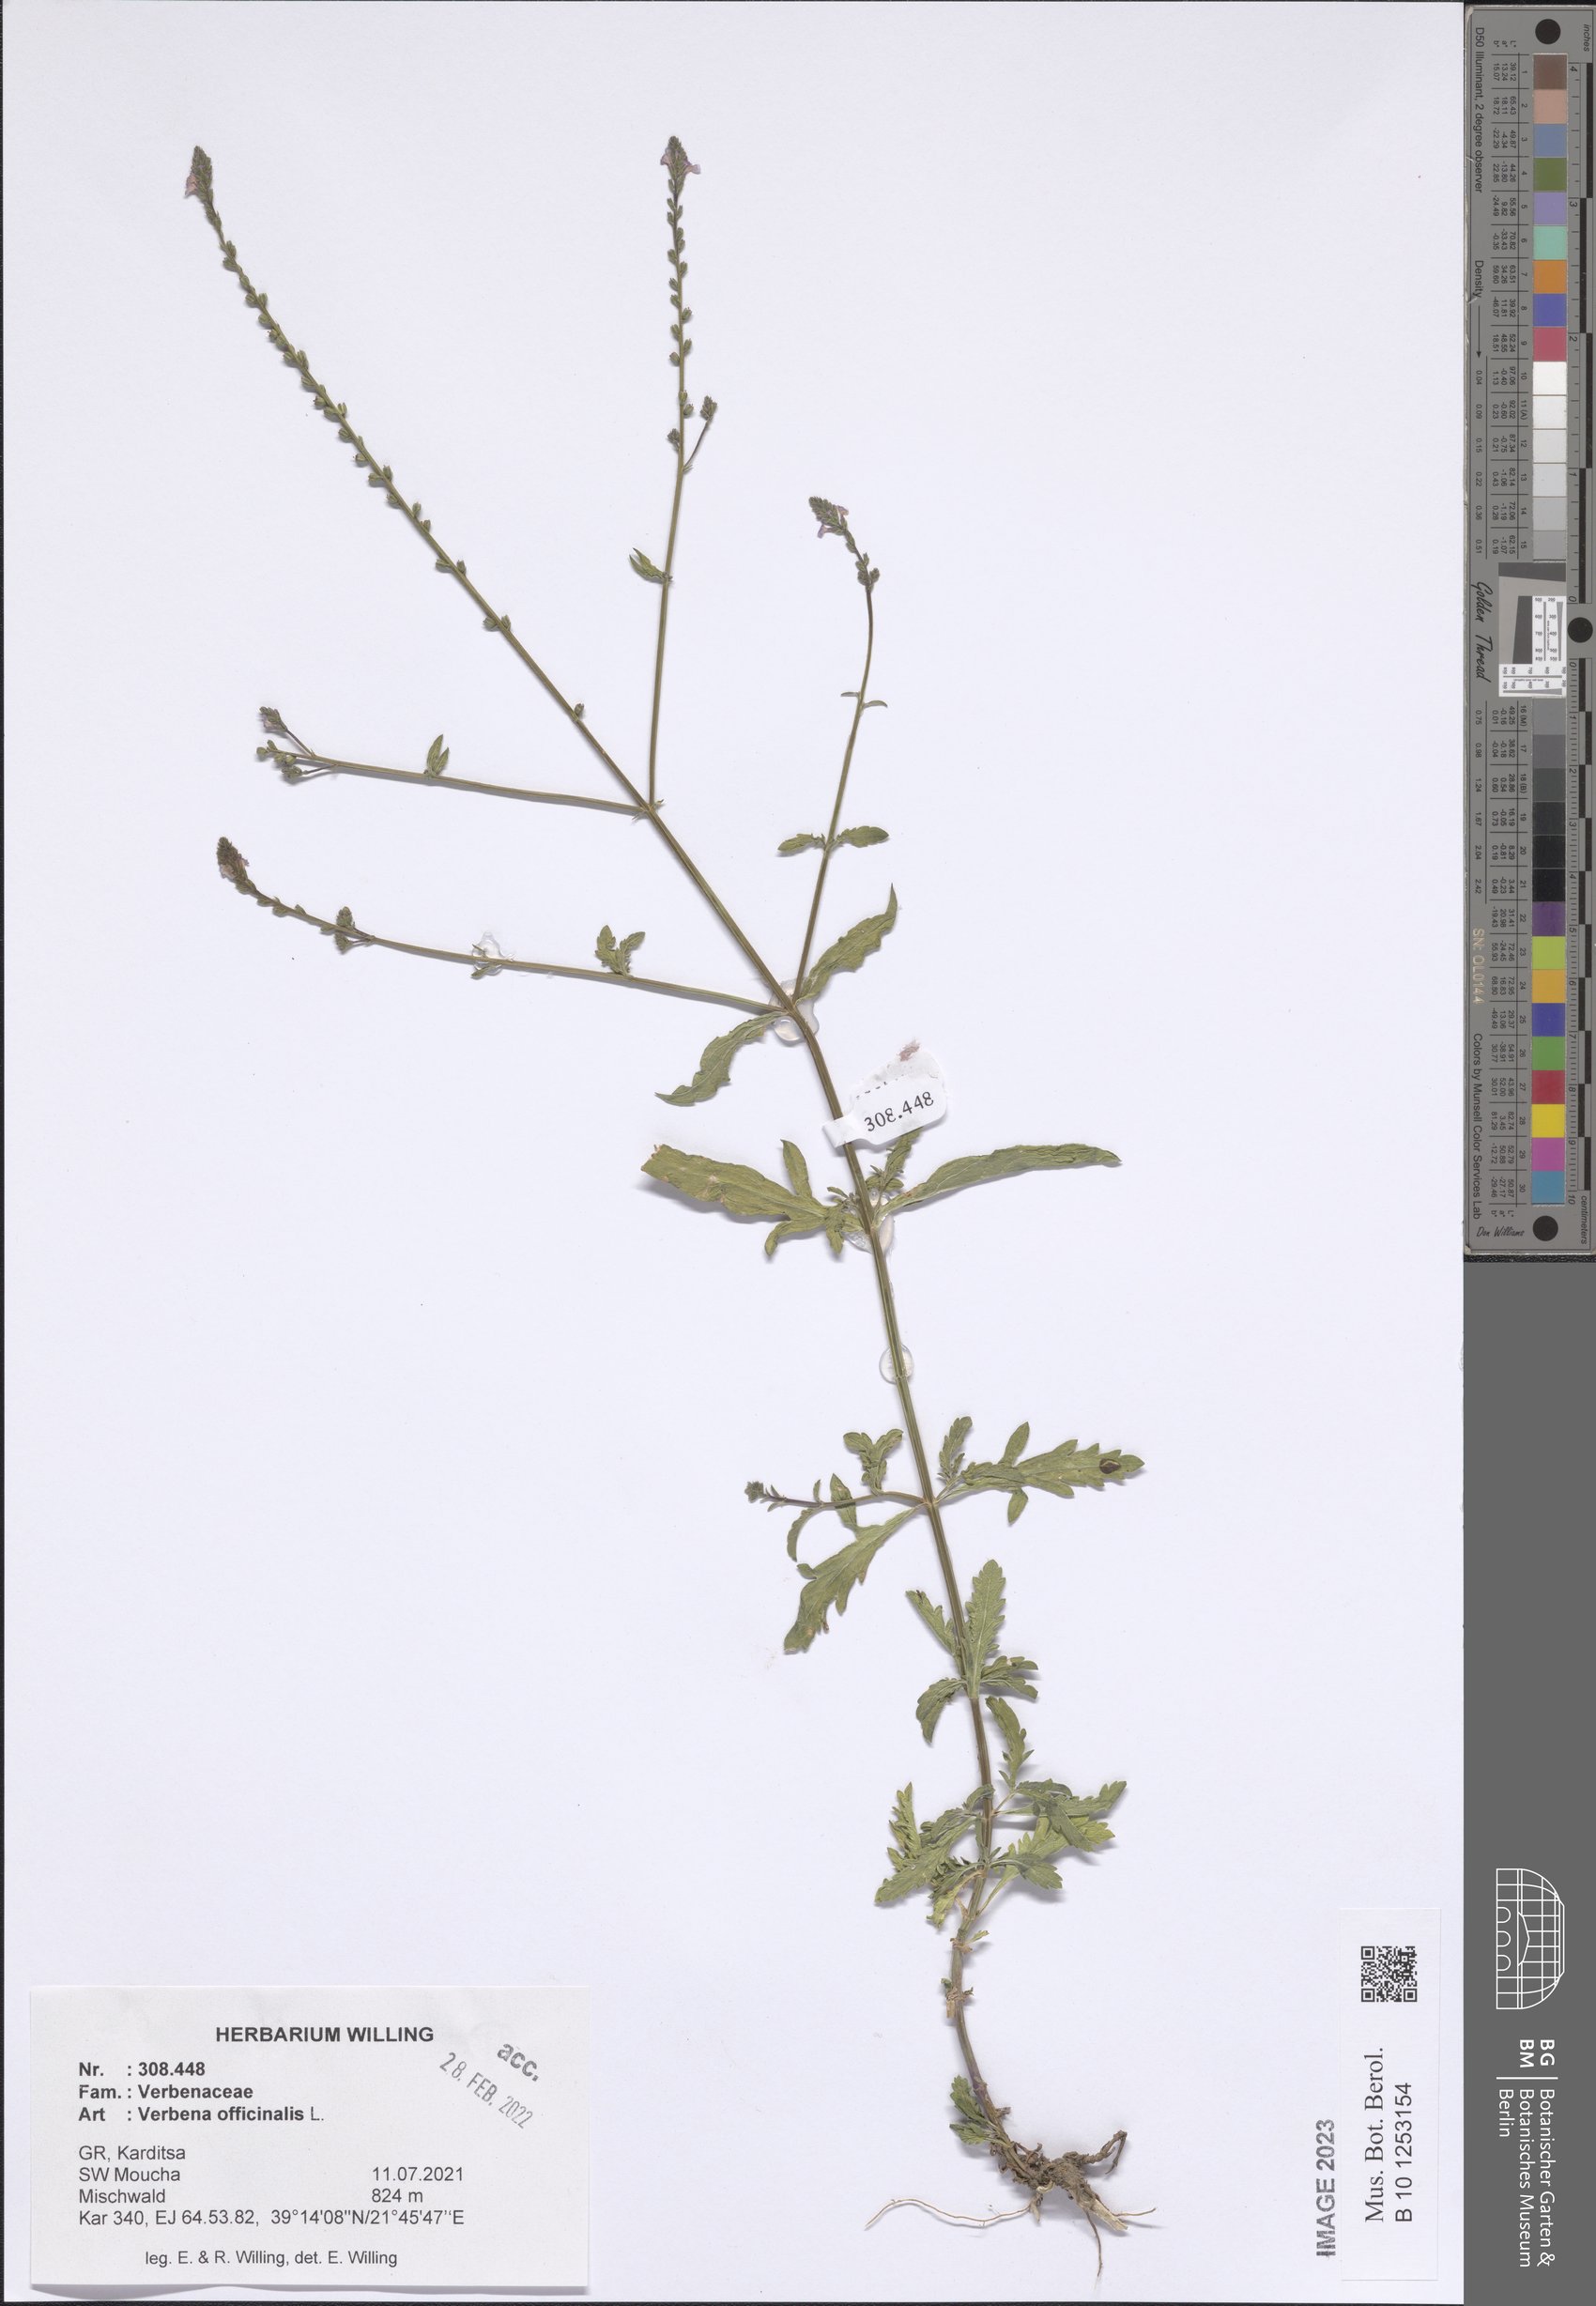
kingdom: Plantae
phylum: Tracheophyta
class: Magnoliopsida
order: Lamiales
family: Verbenaceae
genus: Verbena
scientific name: Verbena officinalis
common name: Vervain
